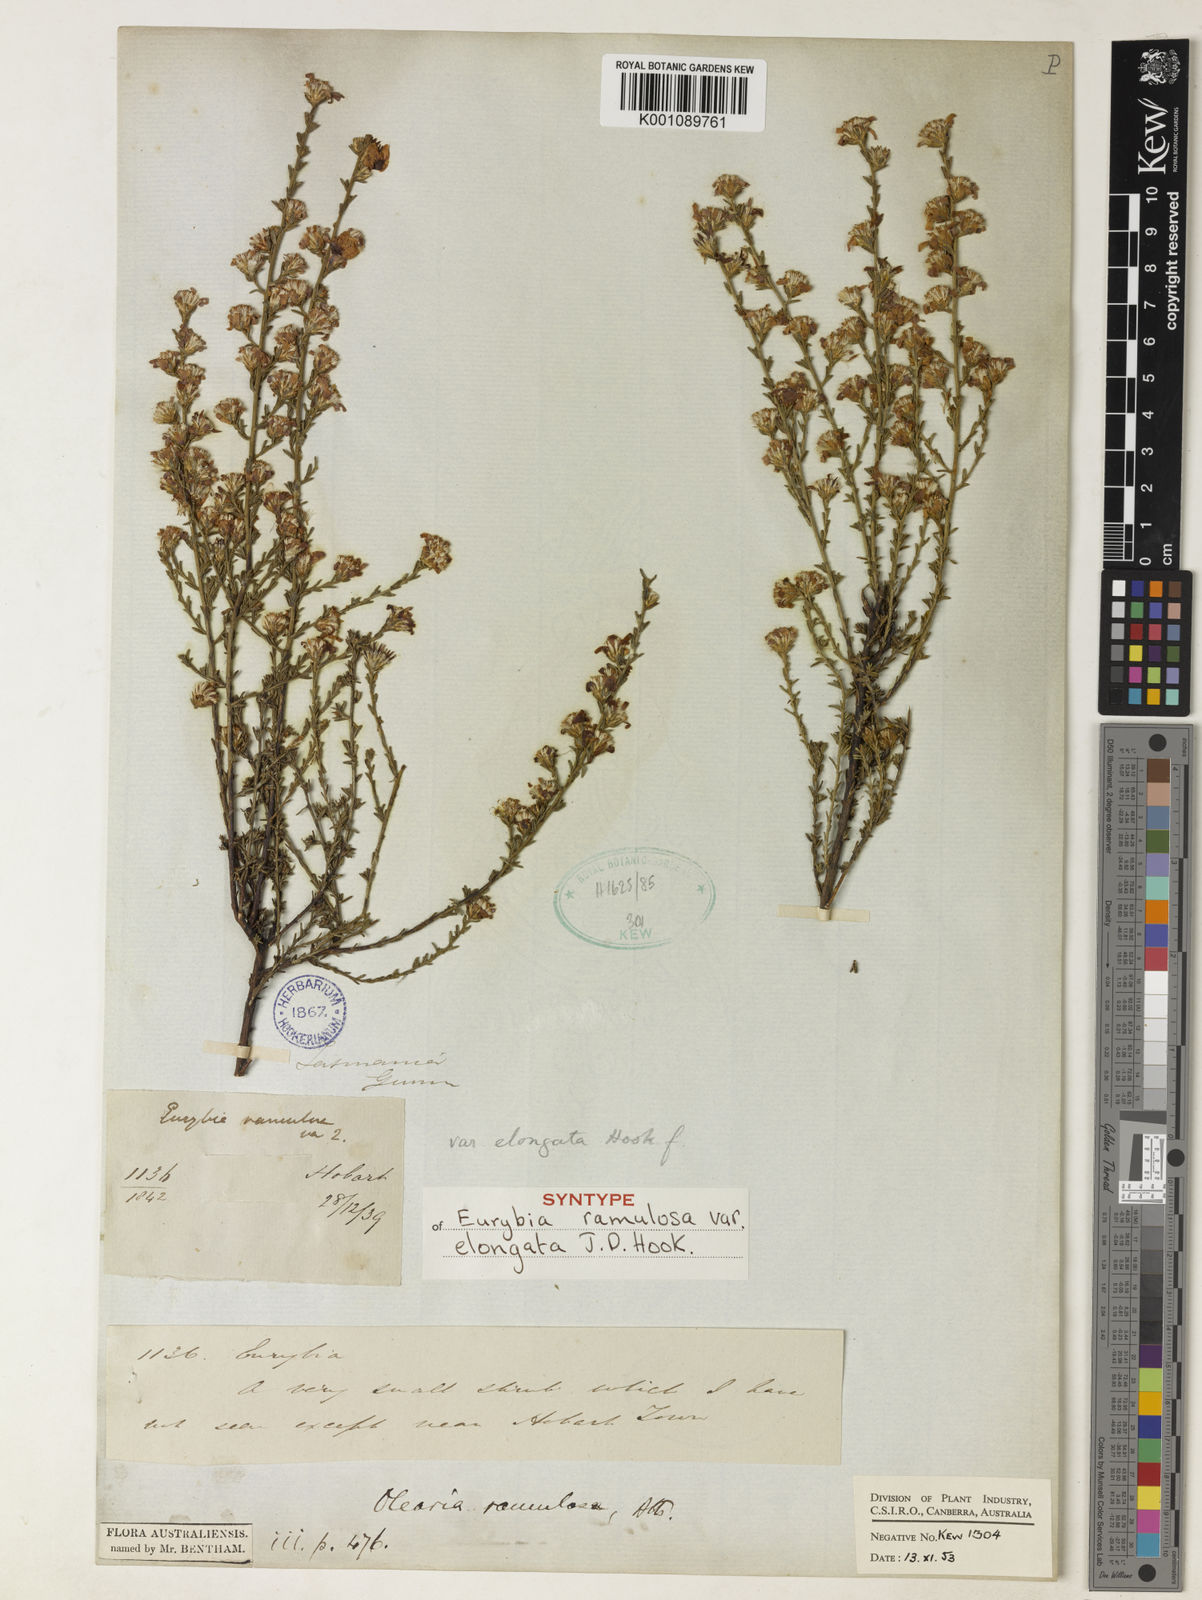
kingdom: Plantae
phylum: Tracheophyta
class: Magnoliopsida
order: Asterales
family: Asteraceae
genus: Olearia
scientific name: Olearia ramulosa
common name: Twiggy daisybush
